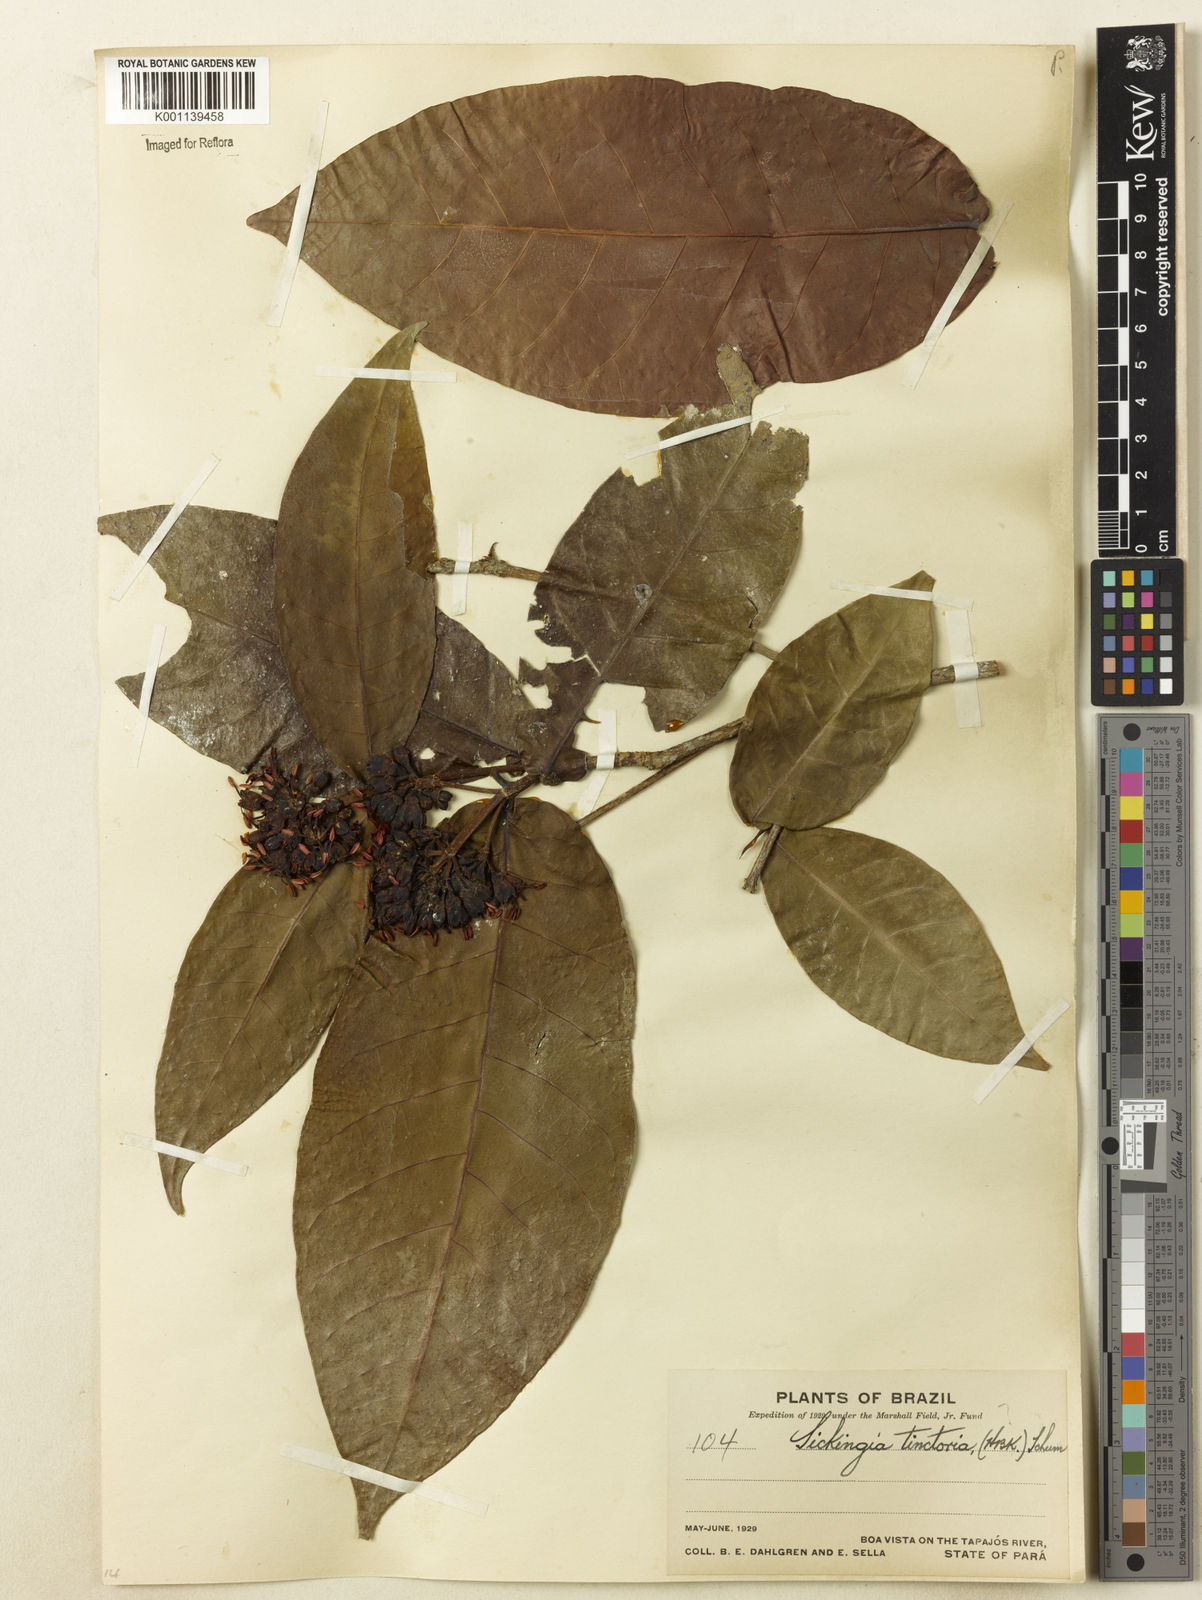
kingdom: Plantae
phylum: Tracheophyta
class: Magnoliopsida
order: Gentianales
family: Rubiaceae
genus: Simira
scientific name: Simira rubescens
